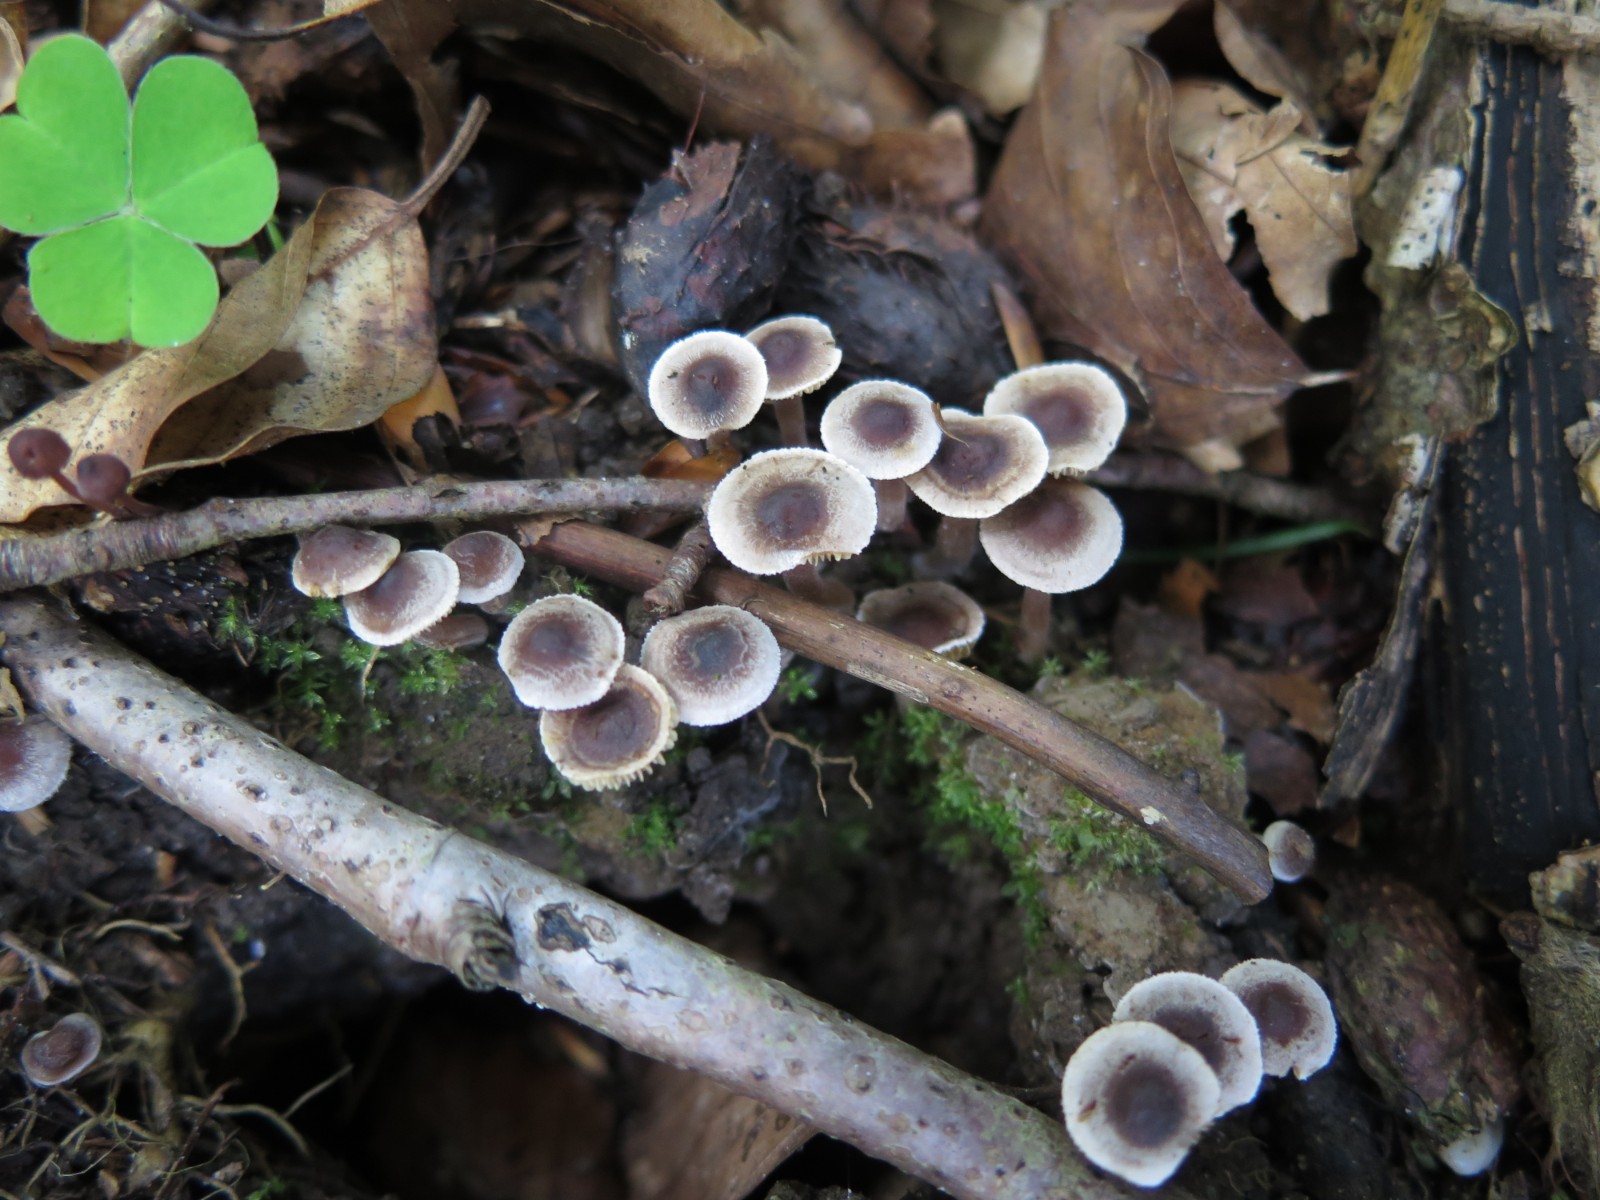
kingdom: Fungi
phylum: Basidiomycota
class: Agaricomycetes
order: Agaricales
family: Inocybaceae
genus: Inocybe
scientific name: Inocybe petiginosa
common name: liden trævlhat
